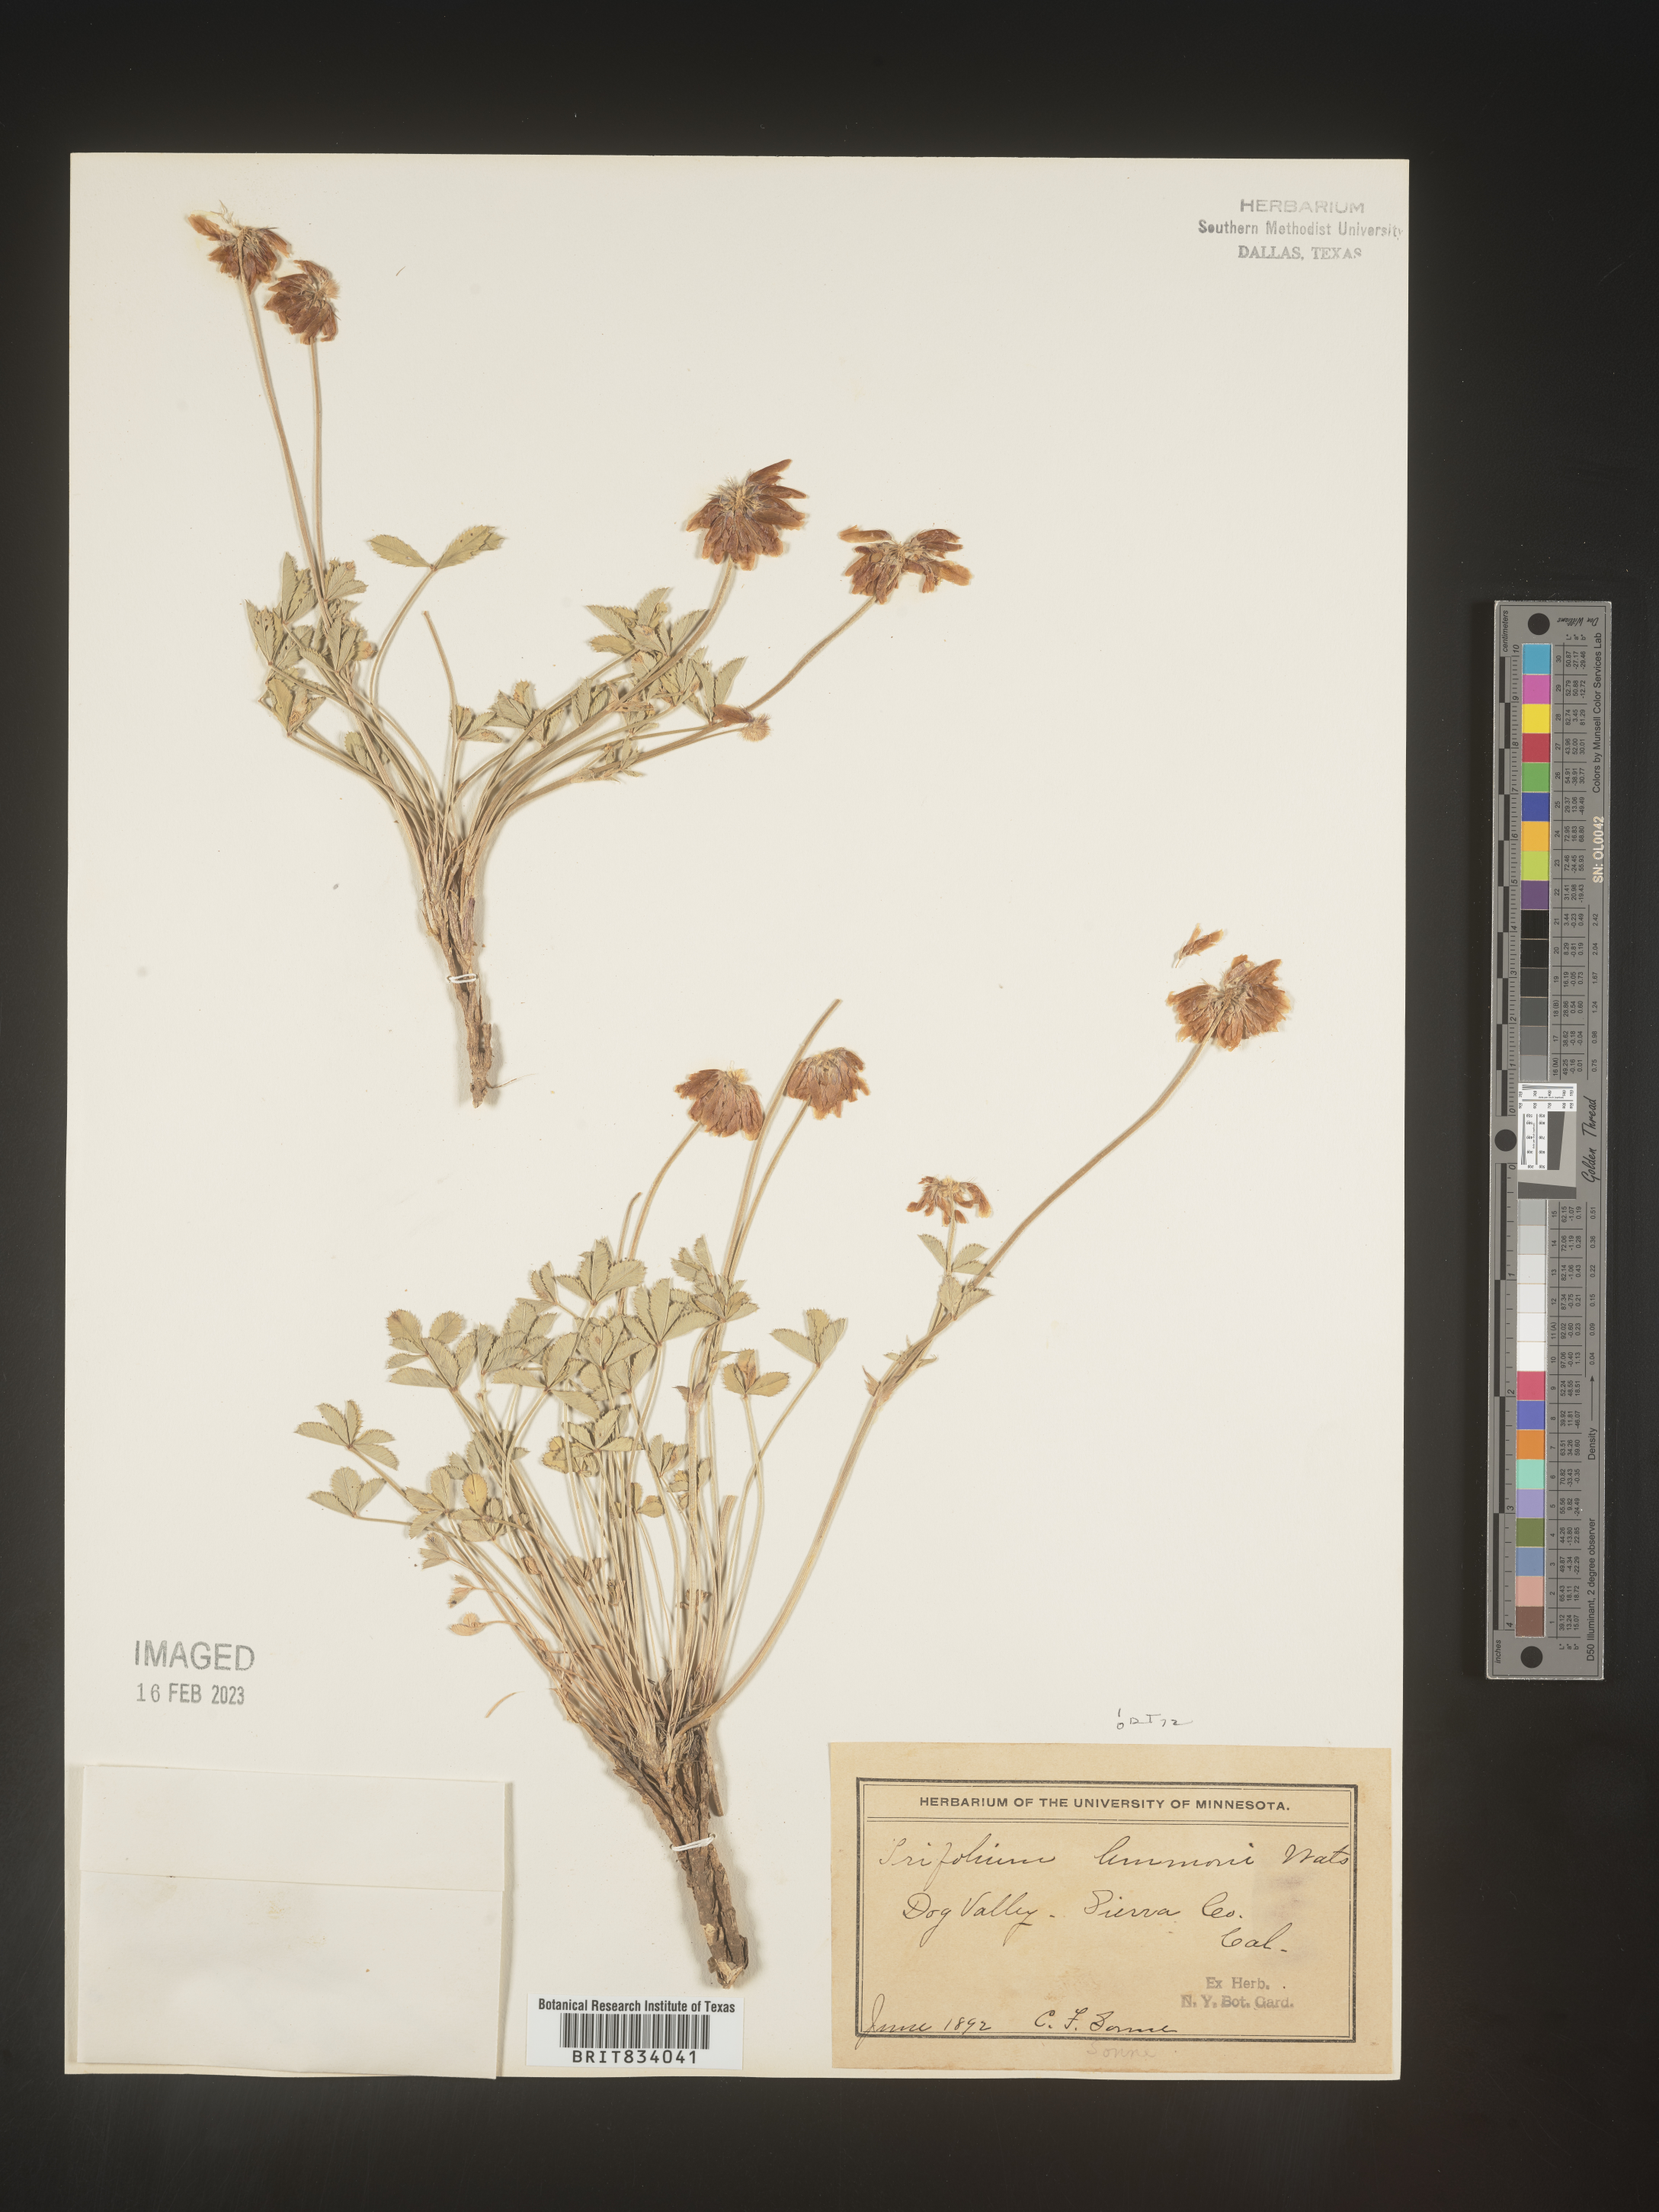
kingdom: Plantae
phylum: Tracheophyta
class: Magnoliopsida
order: Fabales
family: Fabaceae
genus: Trifolium
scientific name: Trifolium
